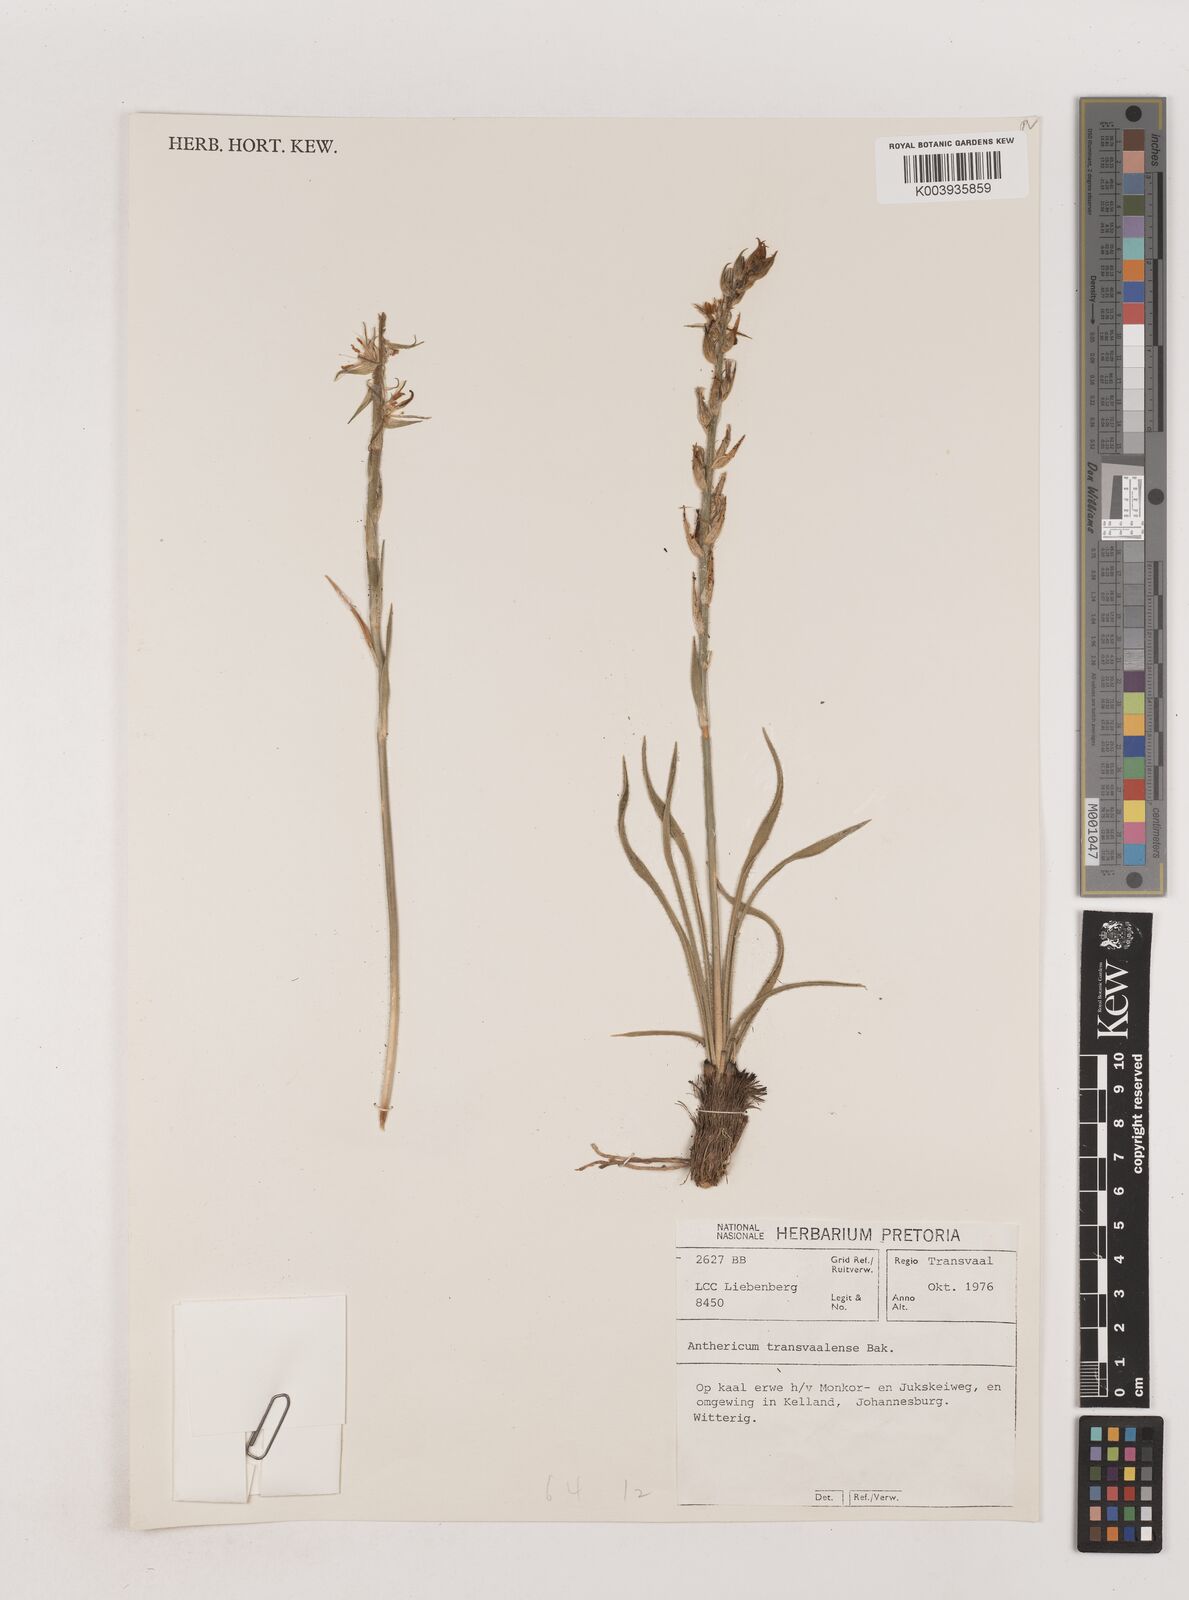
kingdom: Plantae
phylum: Tracheophyta
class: Liliopsida
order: Asparagales
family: Asparagaceae
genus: Chlorophytum
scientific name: Chlorophytum transvaalense
